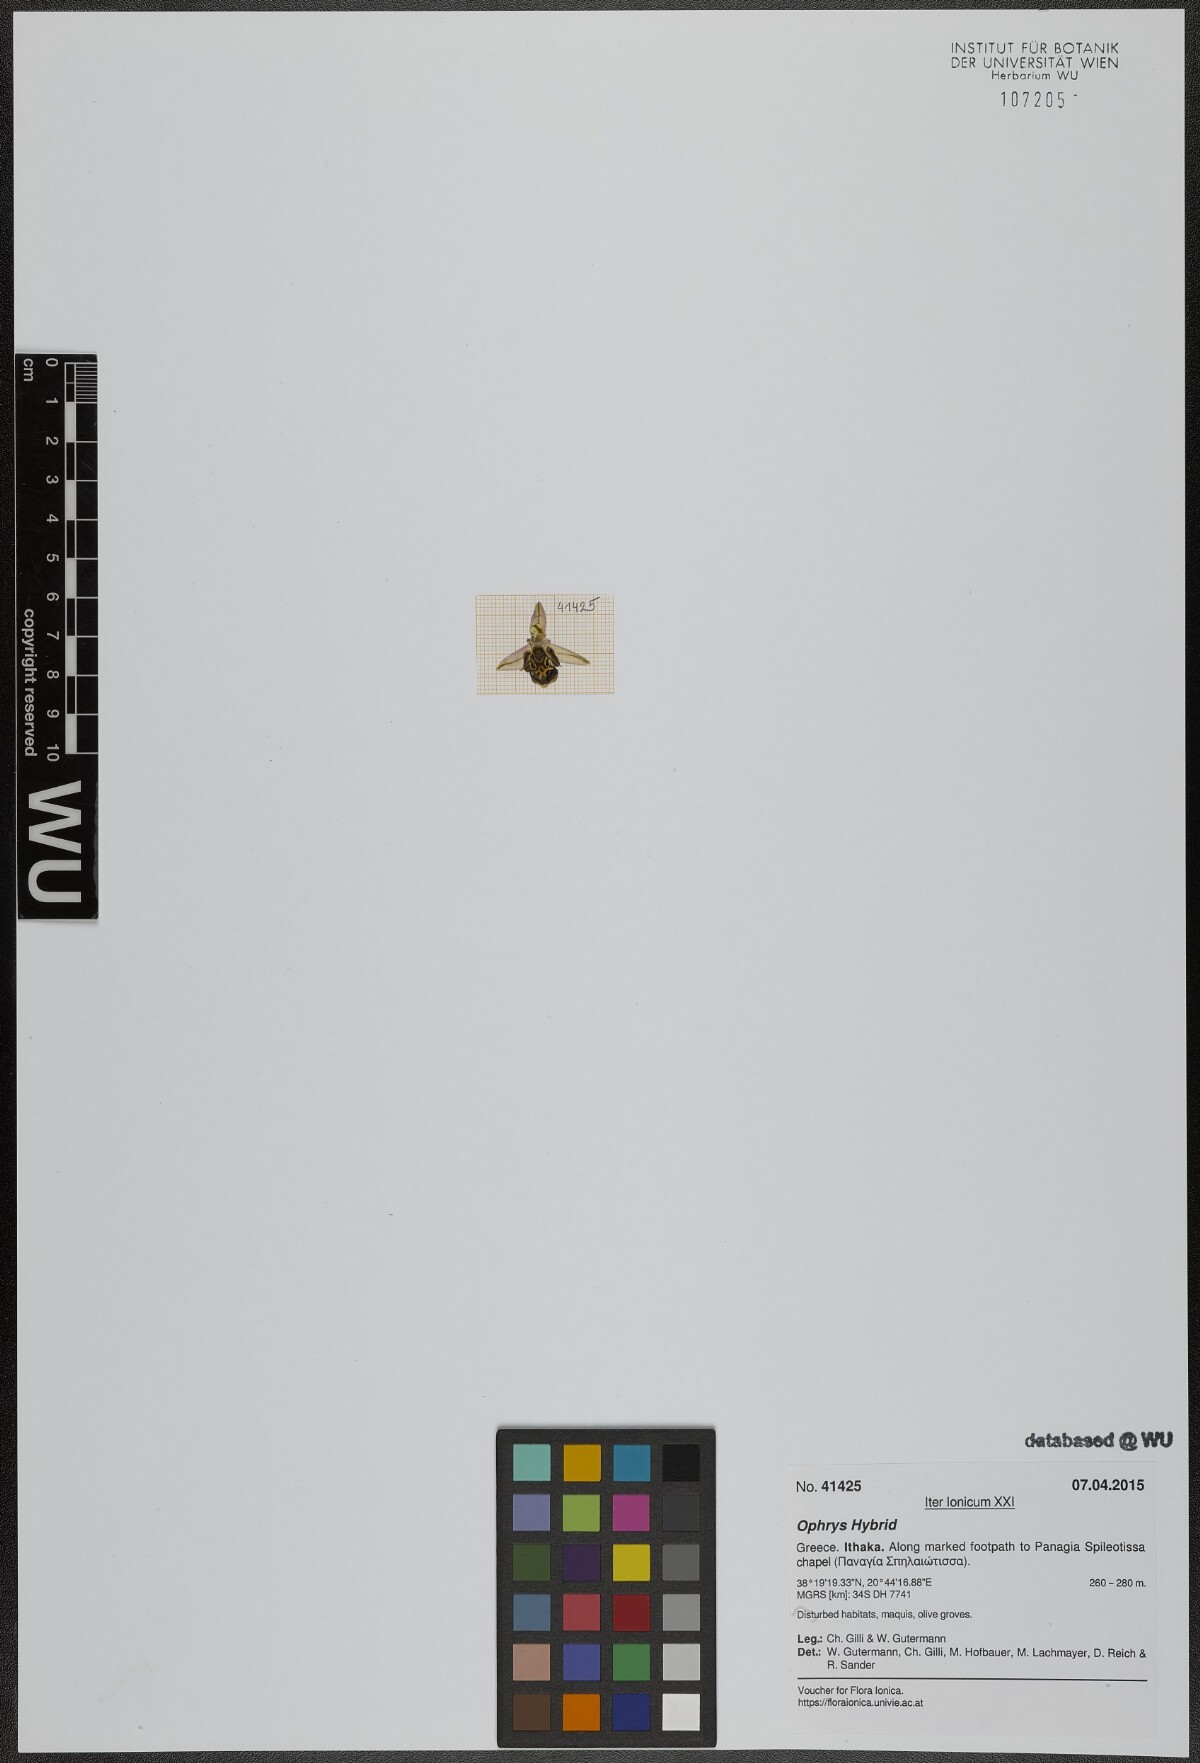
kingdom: Plantae
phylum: Tracheophyta
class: Liliopsida
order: Asparagales
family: Orchidaceae
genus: Ophrys
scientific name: Ophrys
